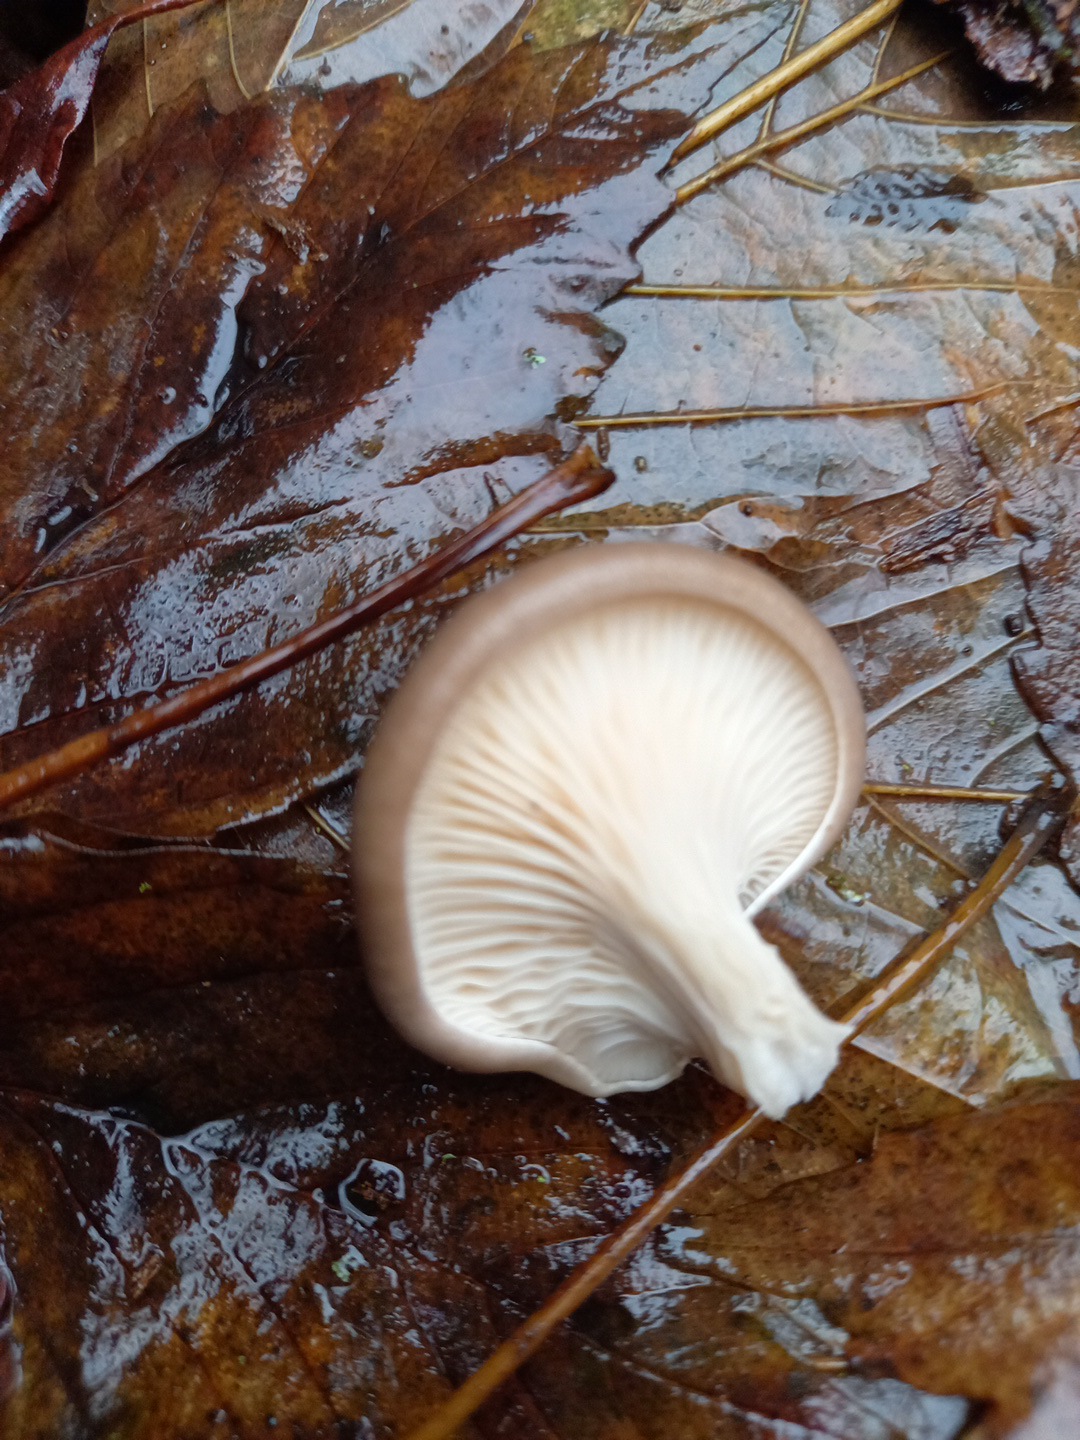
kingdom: Fungi
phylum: Basidiomycota
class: Agaricomycetes
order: Agaricales
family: Pleurotaceae
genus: Pleurotus
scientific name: Pleurotus ostreatus
